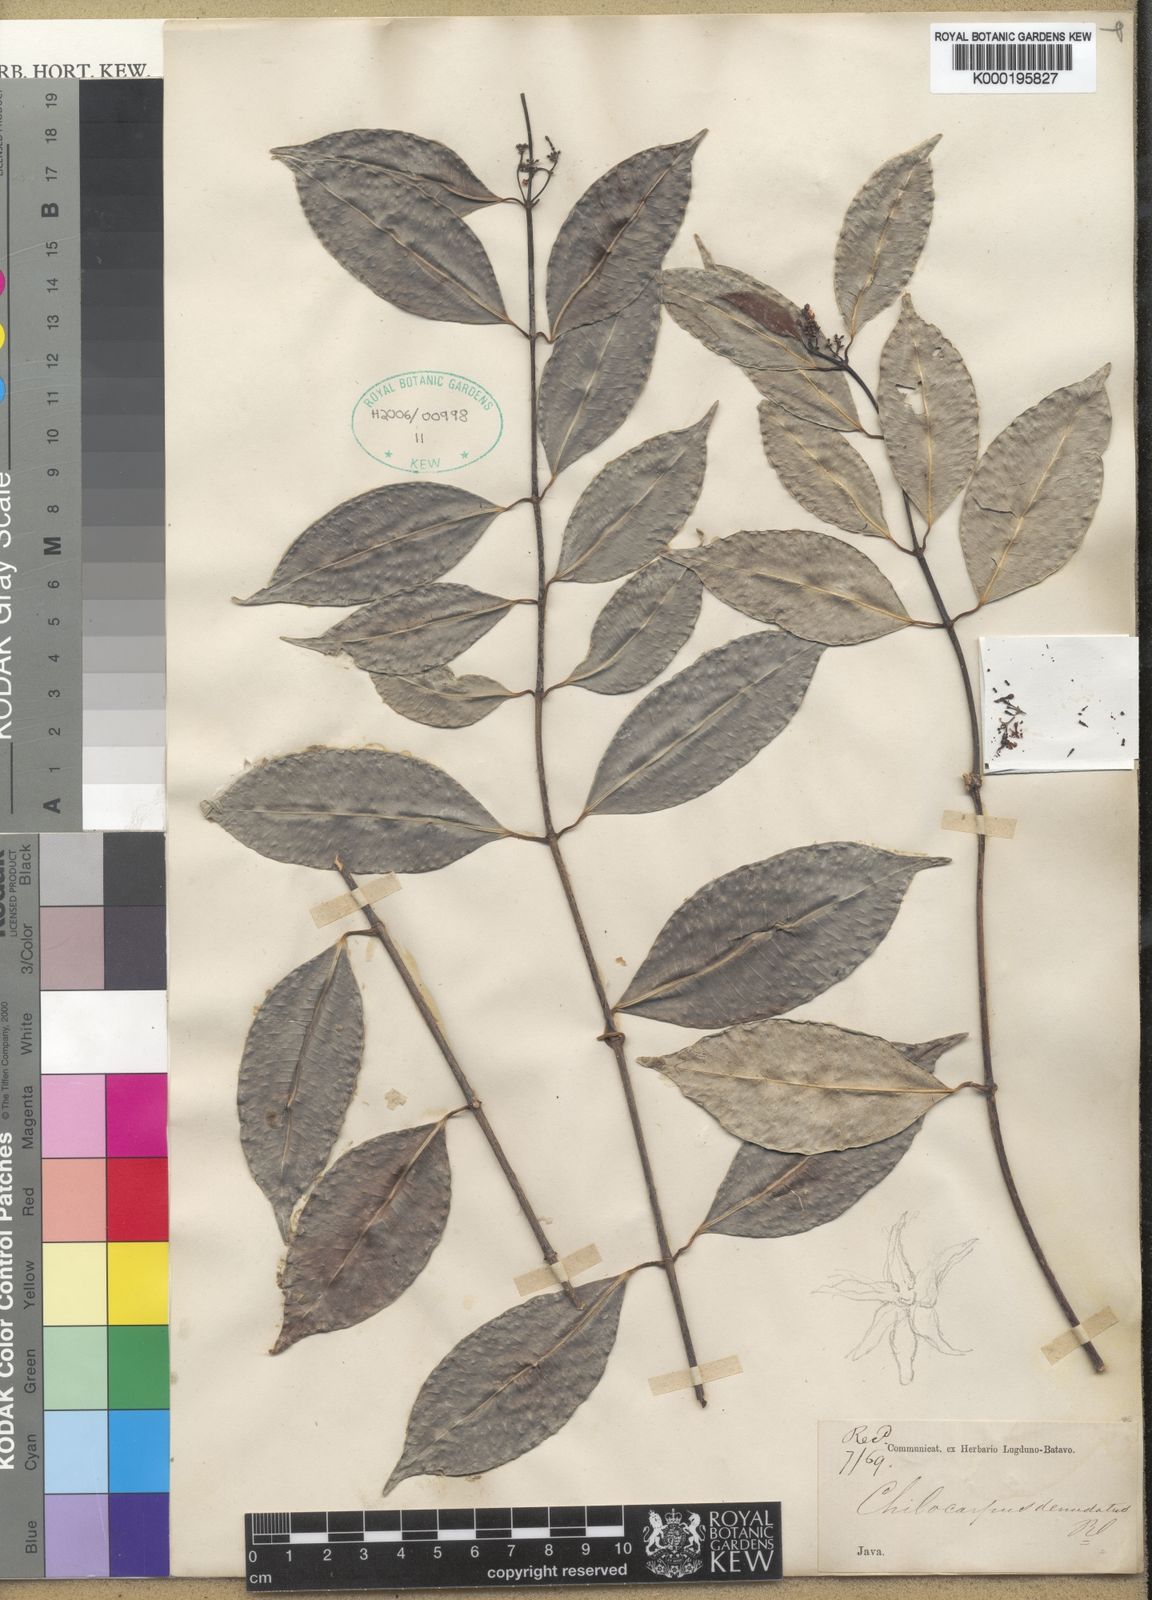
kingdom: Plantae
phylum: Tracheophyta
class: Magnoliopsida
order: Gentianales
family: Apocynaceae
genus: Chilocarpus
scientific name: Chilocarpus denudatus
